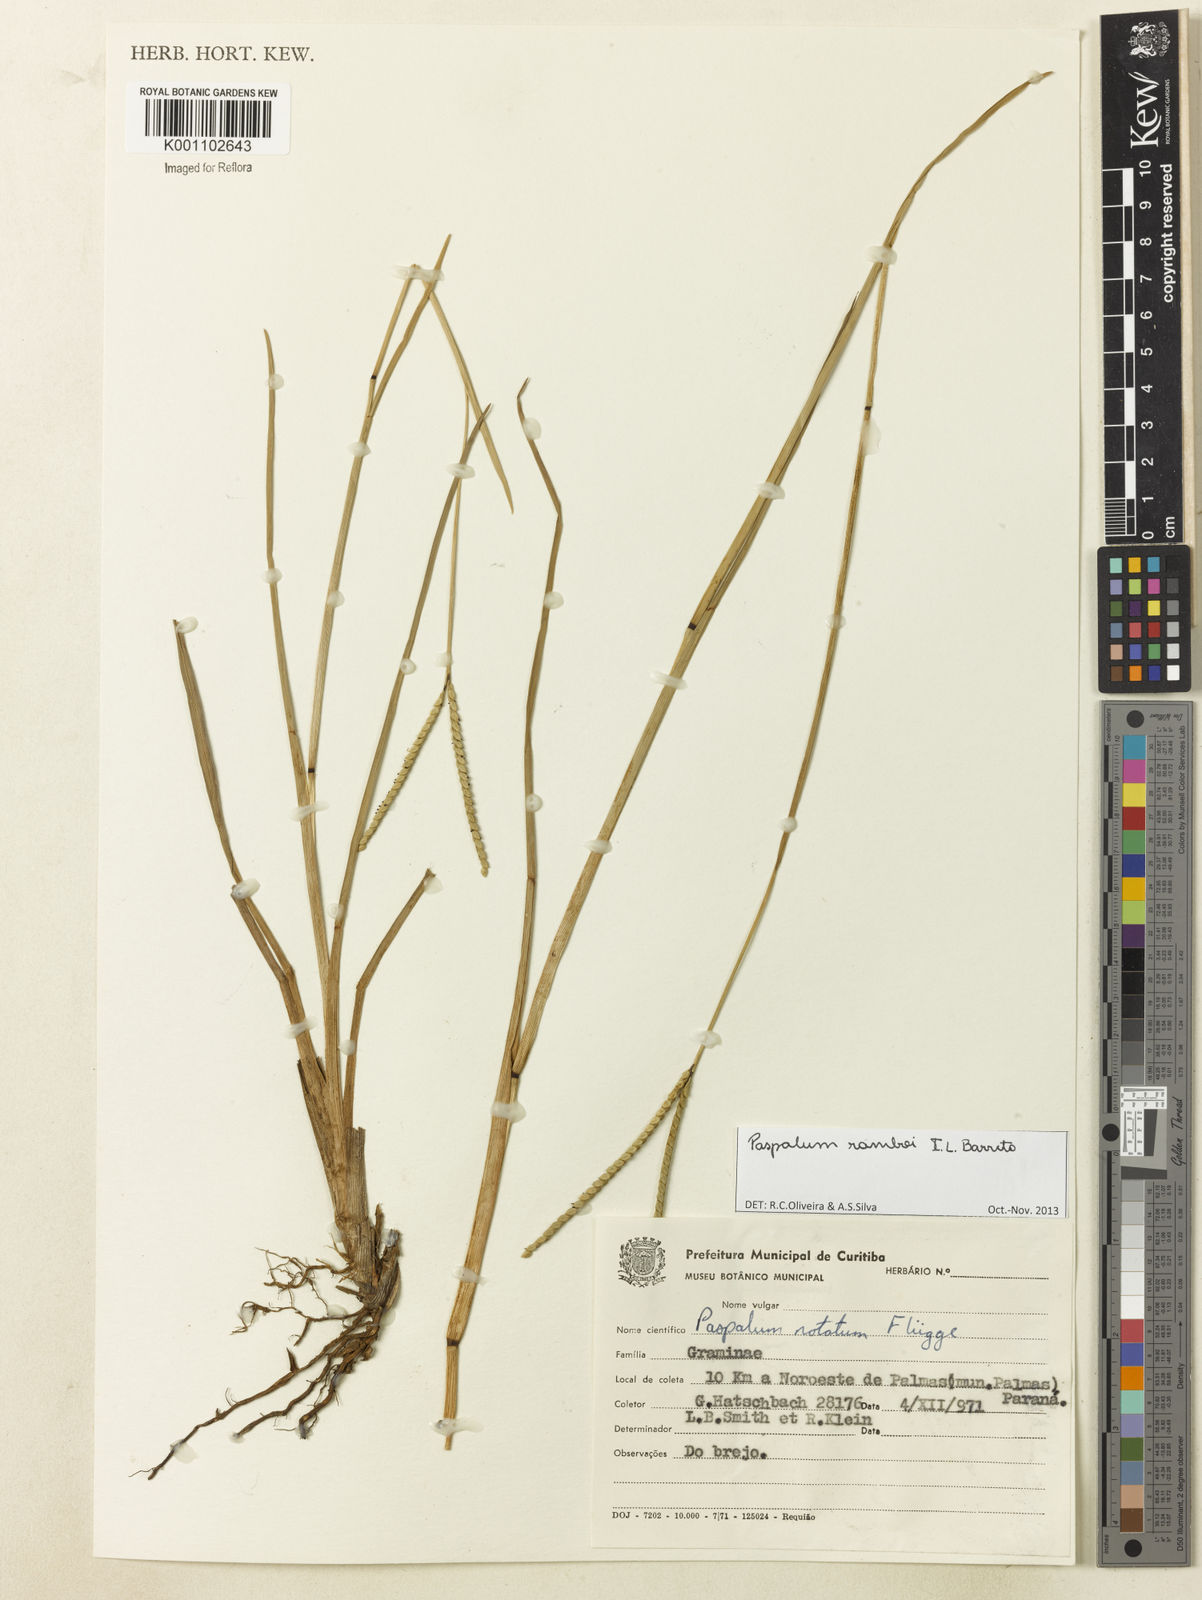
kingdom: Plantae
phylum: Tracheophyta
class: Liliopsida
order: Poales
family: Poaceae
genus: Paspalum
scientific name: Paspalum ramboi
